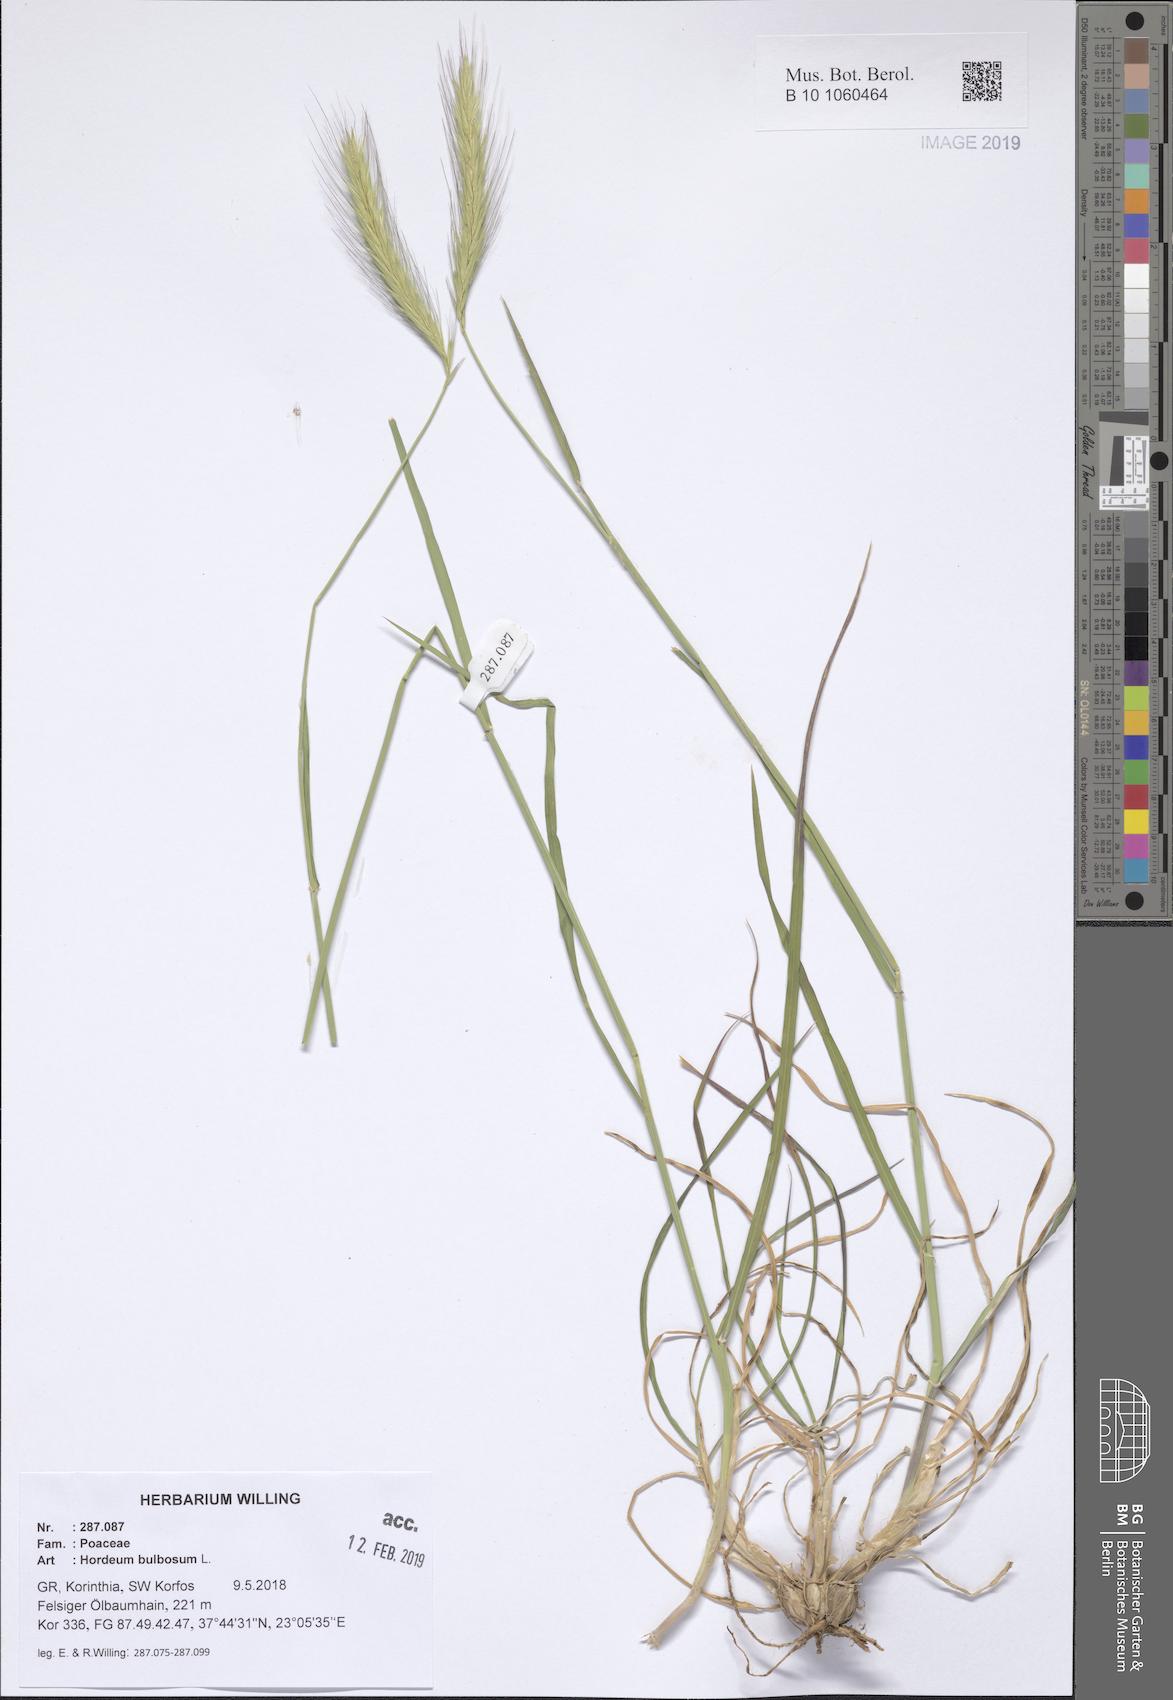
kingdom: Plantae
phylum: Tracheophyta
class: Liliopsida
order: Poales
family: Poaceae
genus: Hordeum
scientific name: Hordeum bulbosum
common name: Bulbous barley
